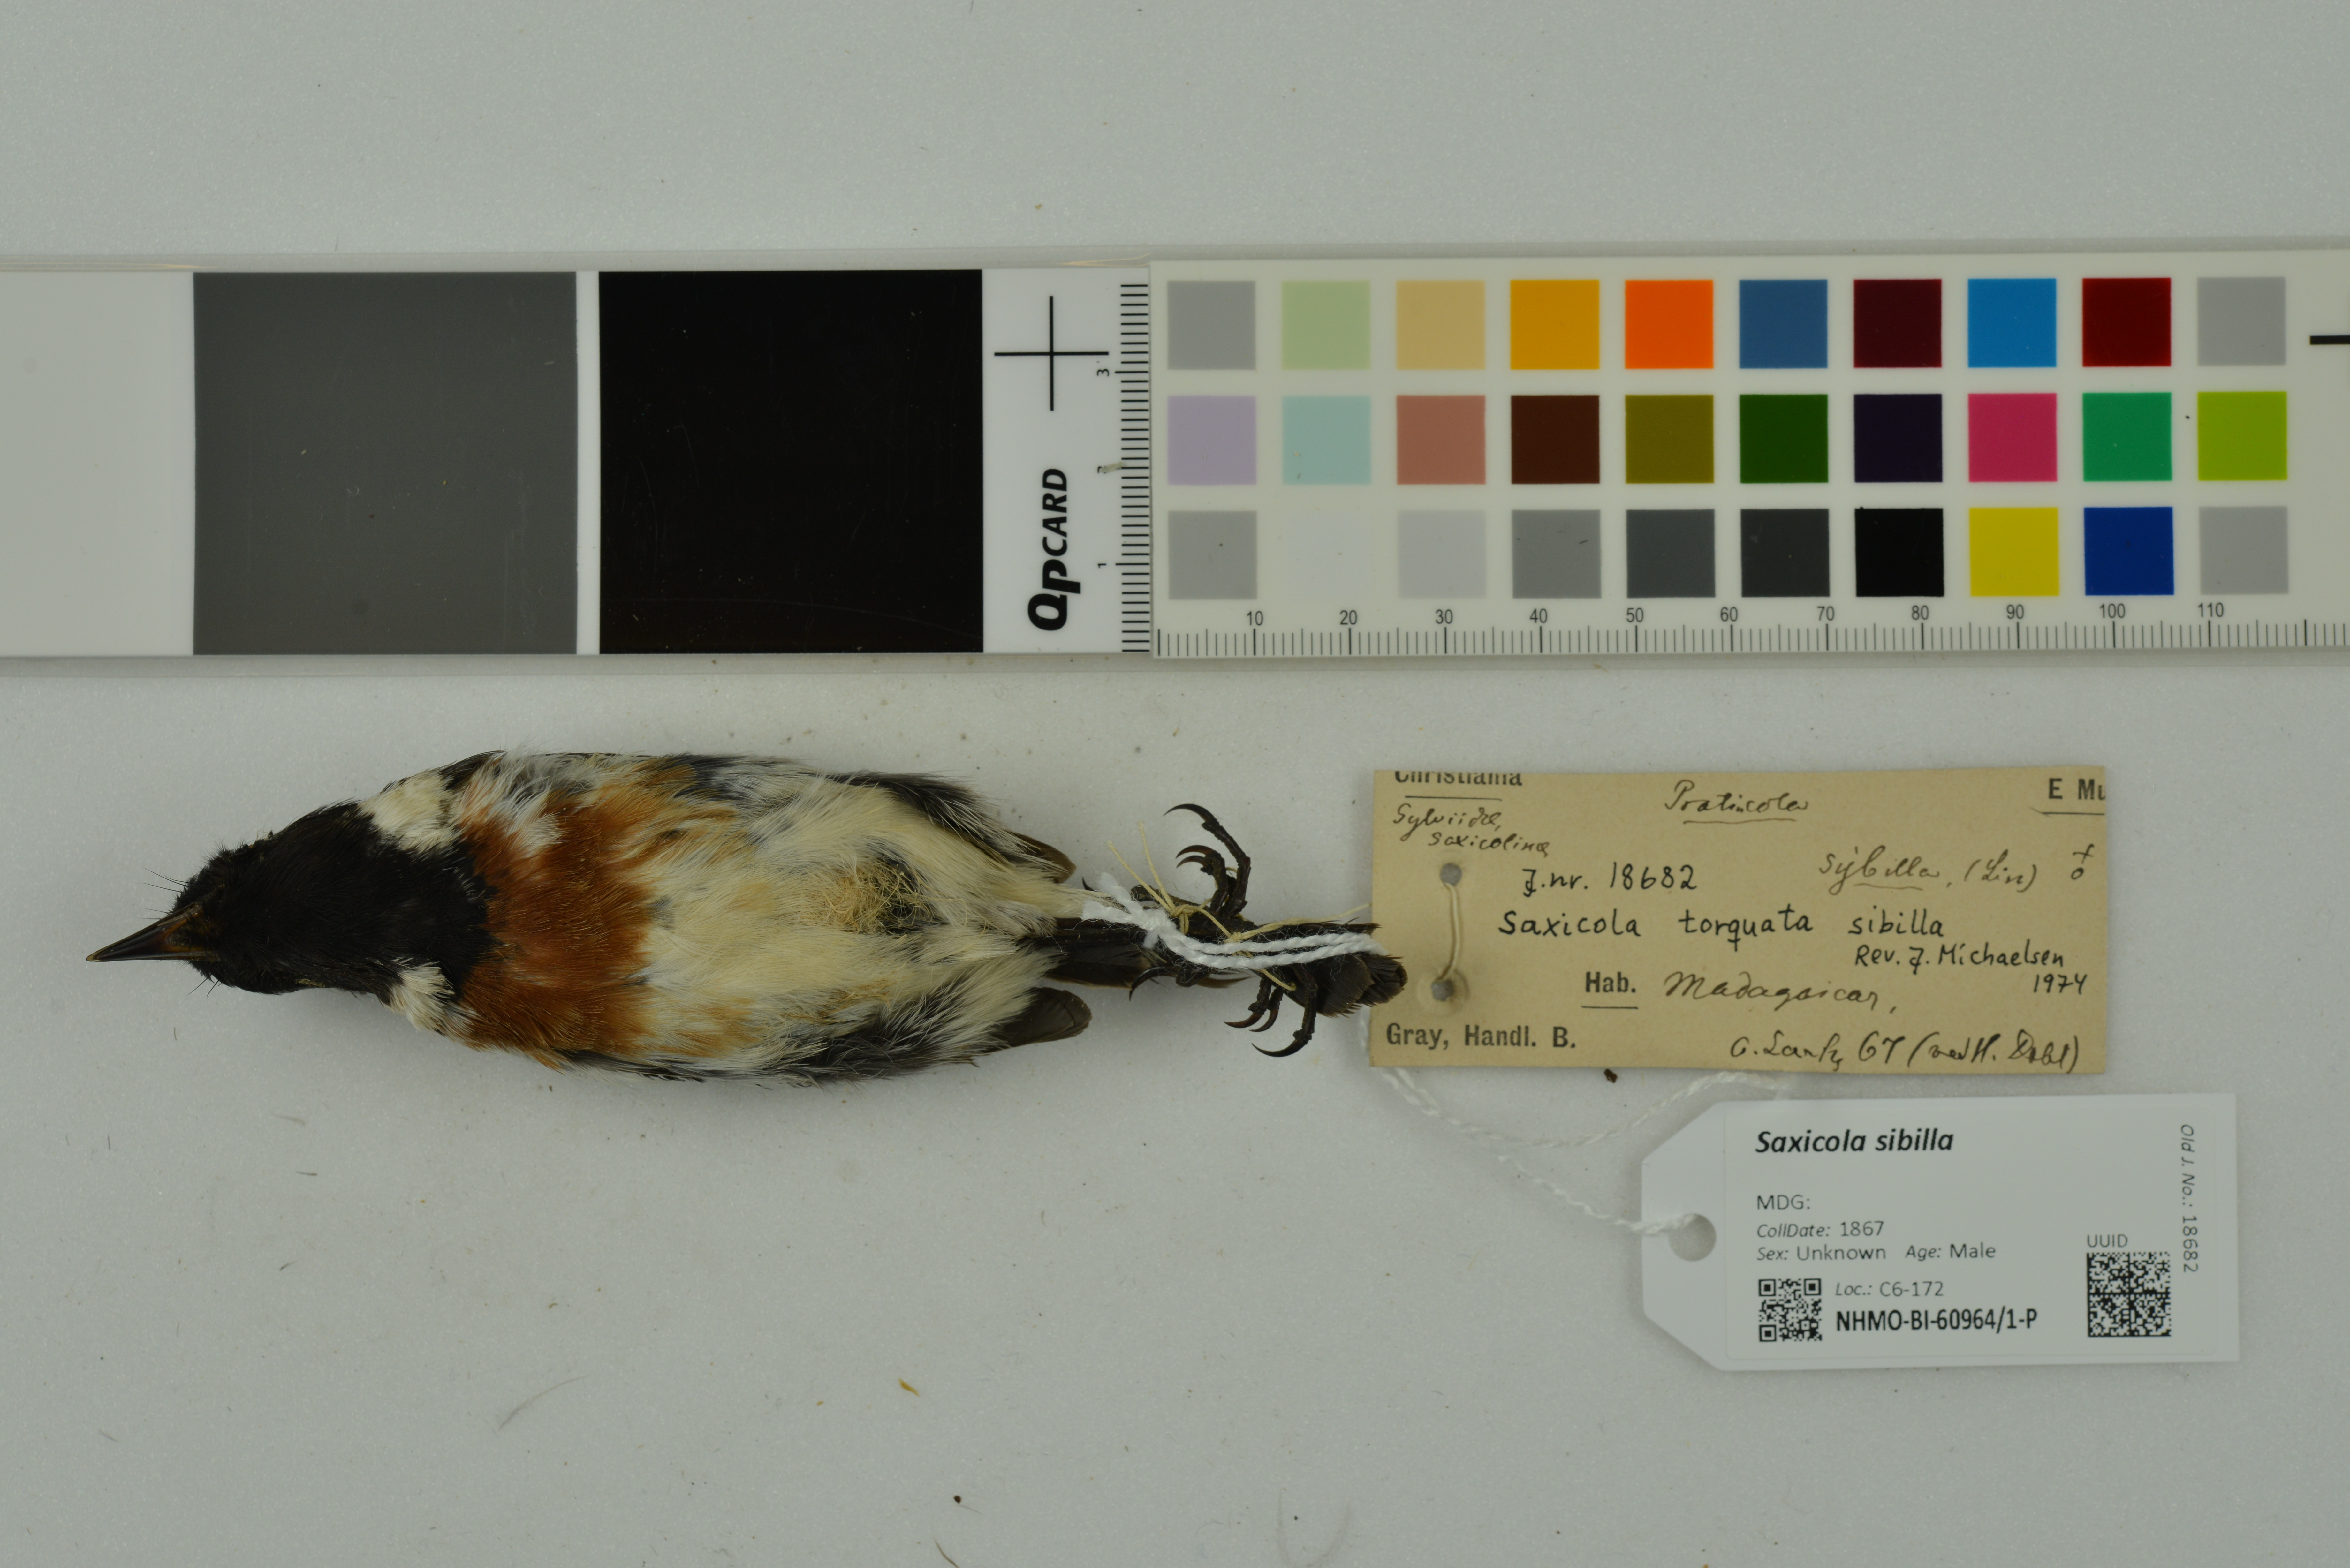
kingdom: Animalia
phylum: Chordata
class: Aves
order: Passeriformes
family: Muscicapidae
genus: Saxicola
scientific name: Saxicola sibilla
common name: Madagascan stonechat
